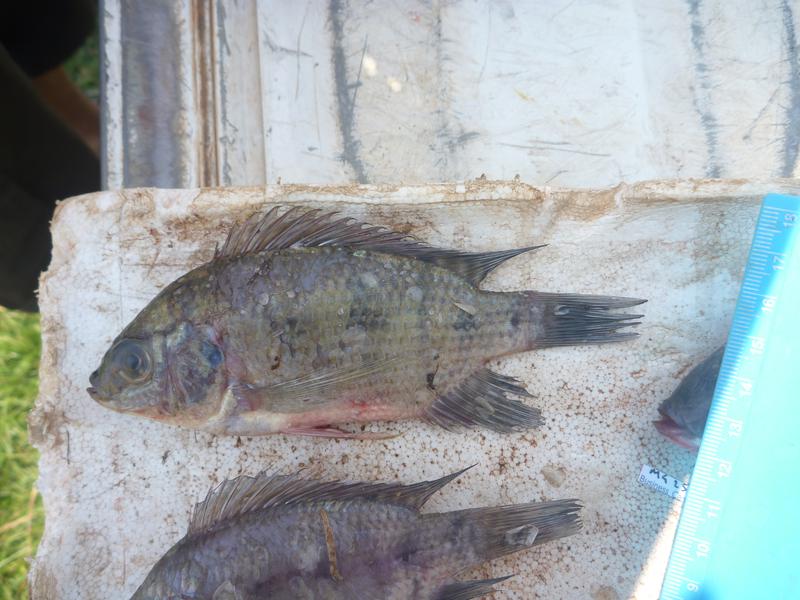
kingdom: Animalia
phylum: Chordata
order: Perciformes
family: Cichlidae
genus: Oreochromis
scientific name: Oreochromis upembae
